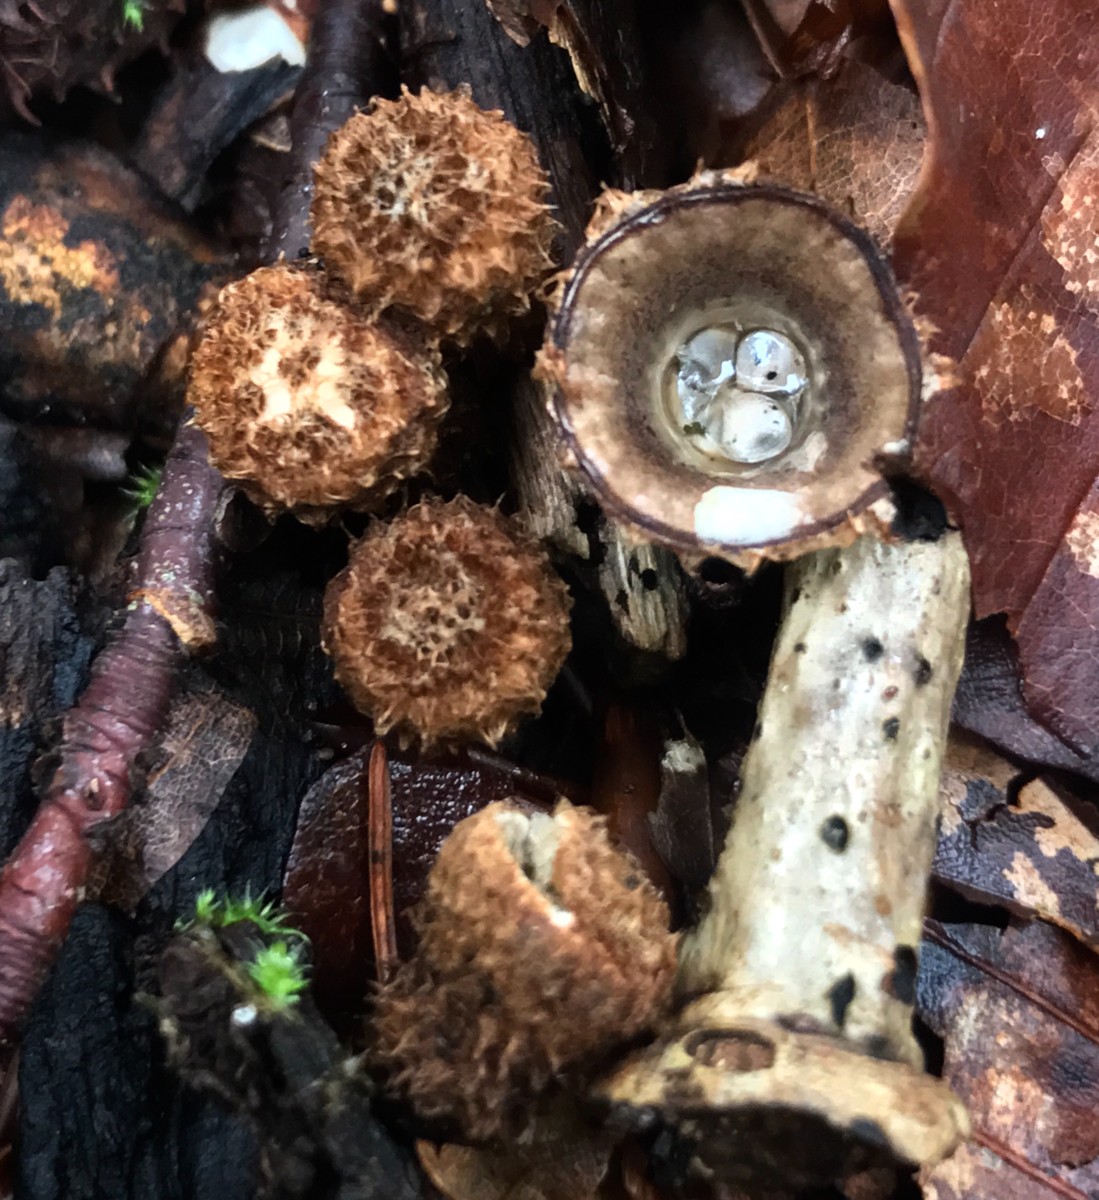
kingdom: Fungi
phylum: Basidiomycota
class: Agaricomycetes
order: Agaricales
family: Agaricaceae
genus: Cyathus
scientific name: Cyathus striatus
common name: stribet redesvamp
